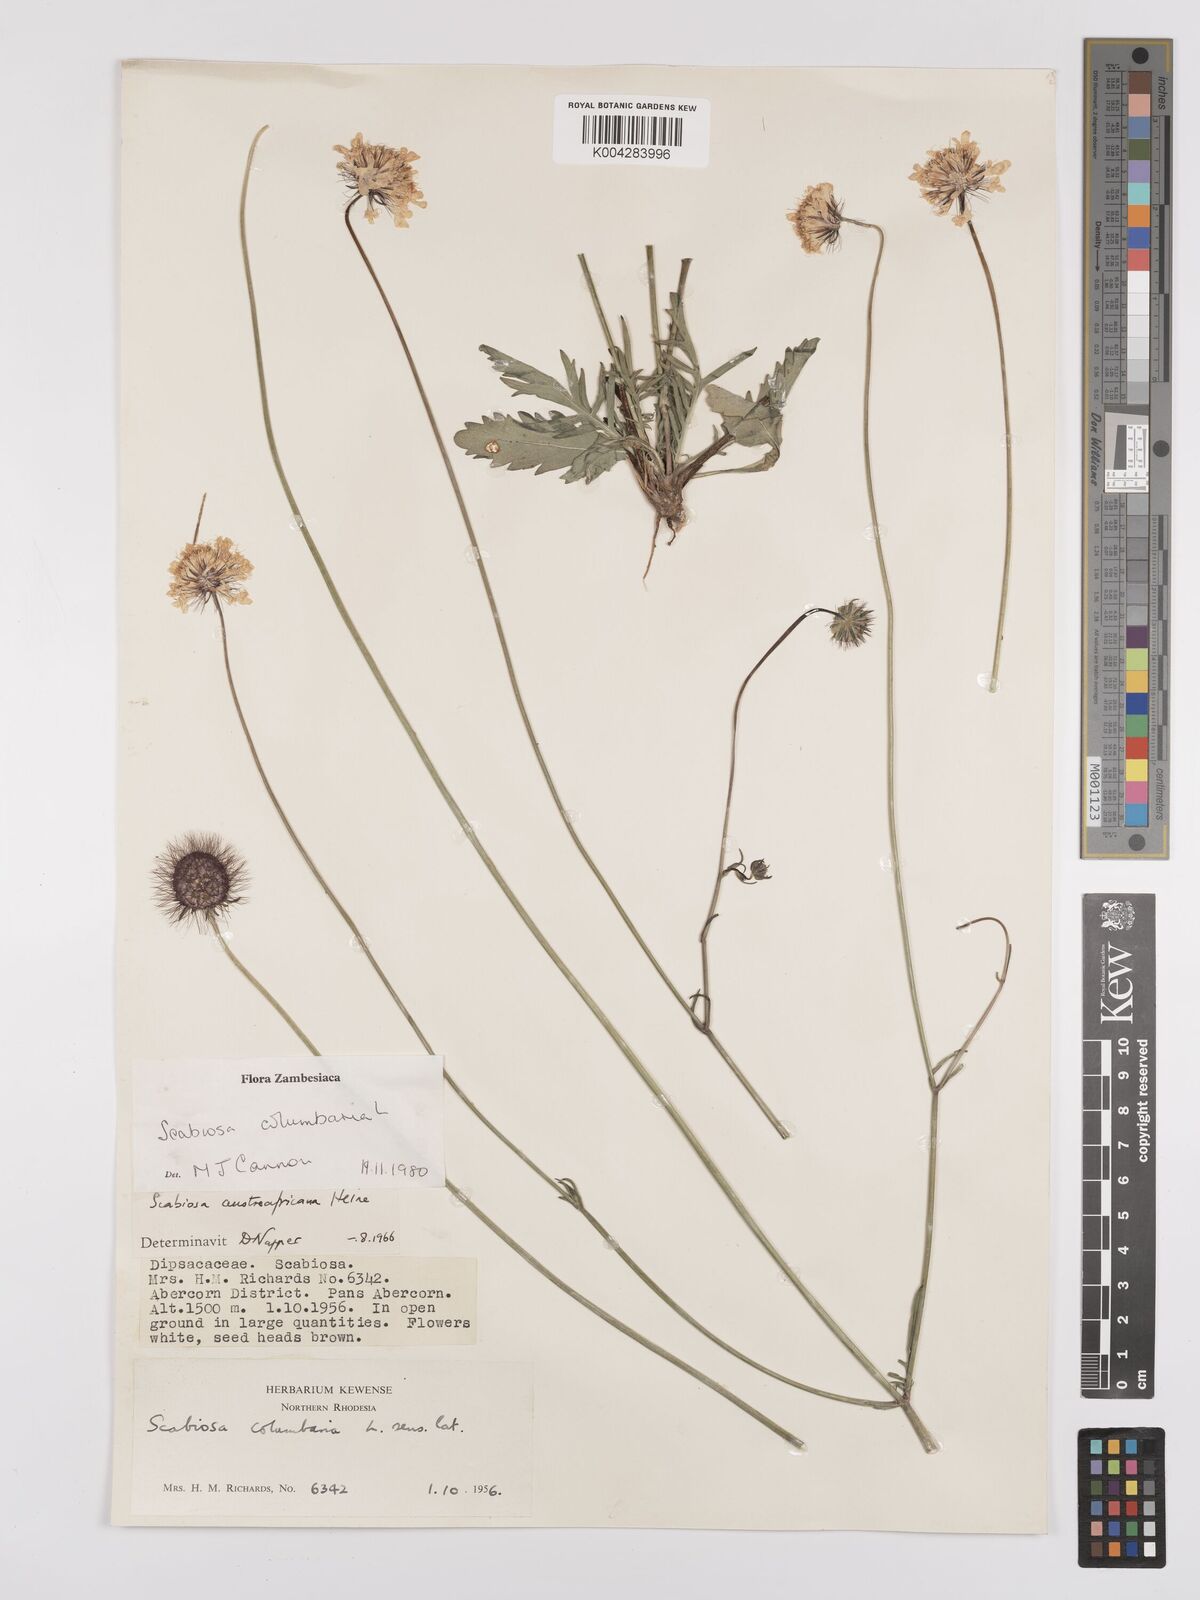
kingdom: Plantae
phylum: Tracheophyta
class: Magnoliopsida
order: Dipsacales
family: Caprifoliaceae
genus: Scabiosa
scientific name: Scabiosa austroafricana
